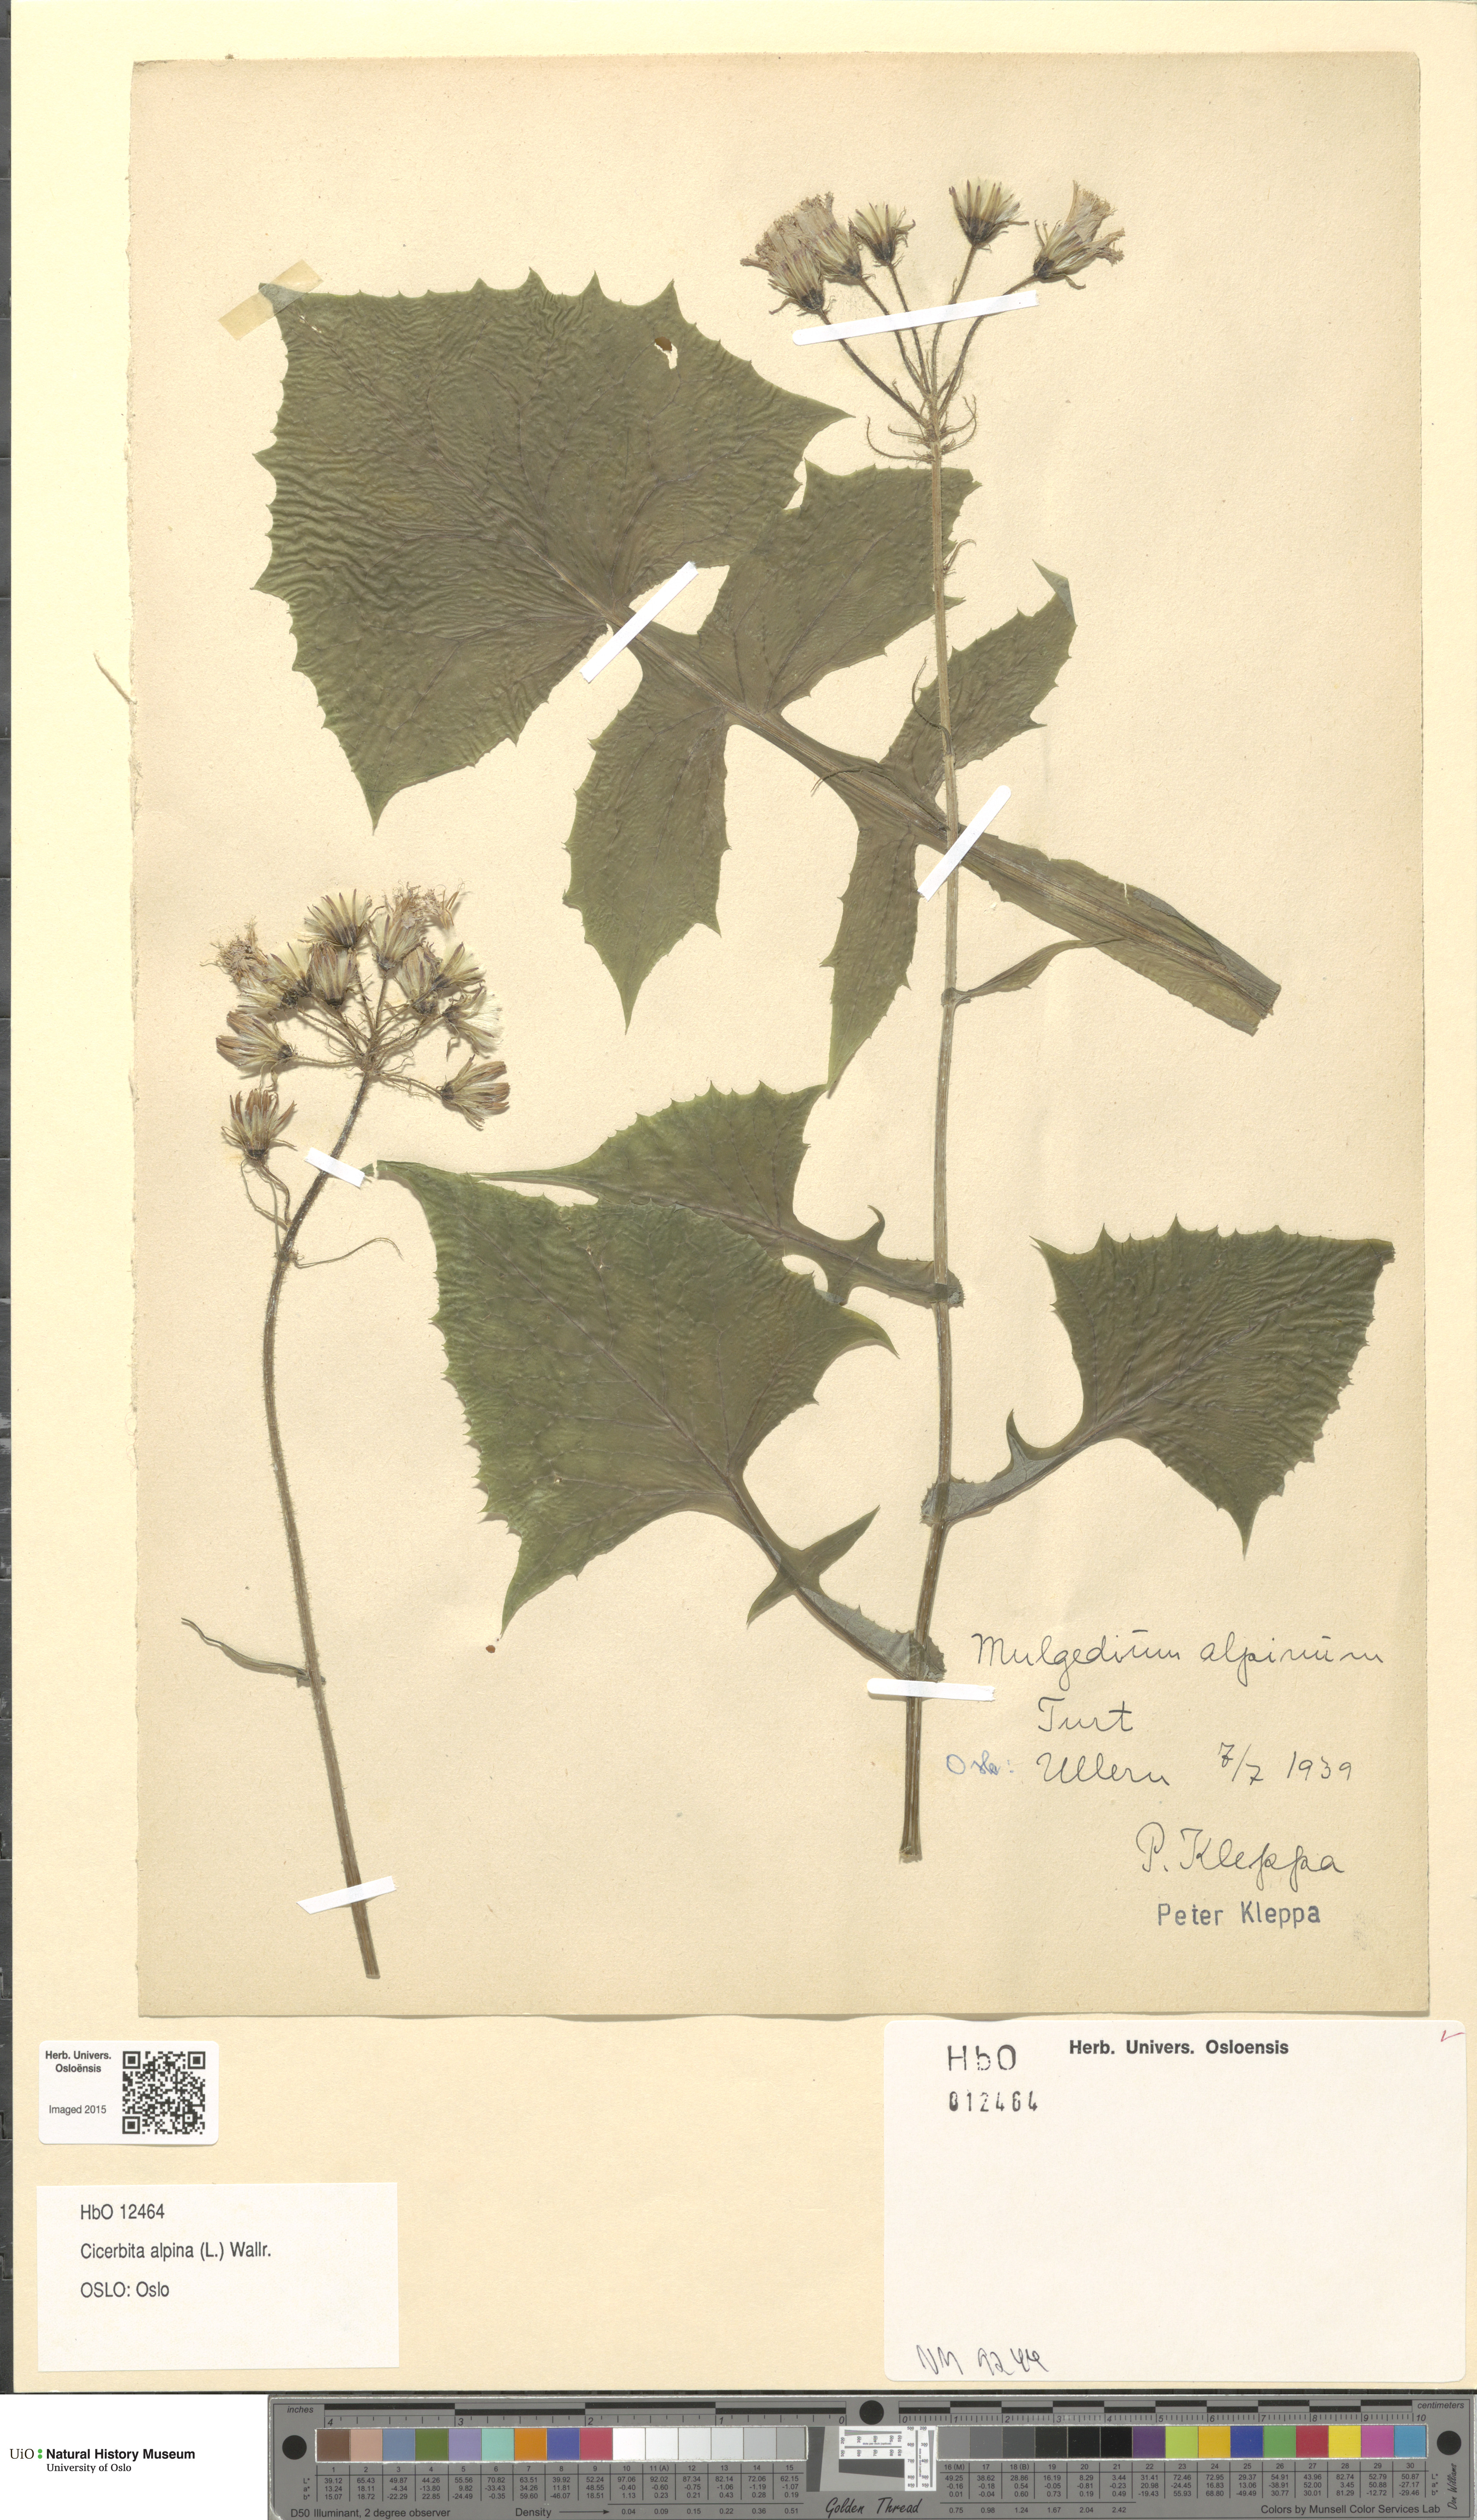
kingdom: Plantae
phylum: Tracheophyta
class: Magnoliopsida
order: Asterales
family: Asteraceae
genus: Cicerbita
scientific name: Cicerbita alpina
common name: Alpine blue-sow-thistle
